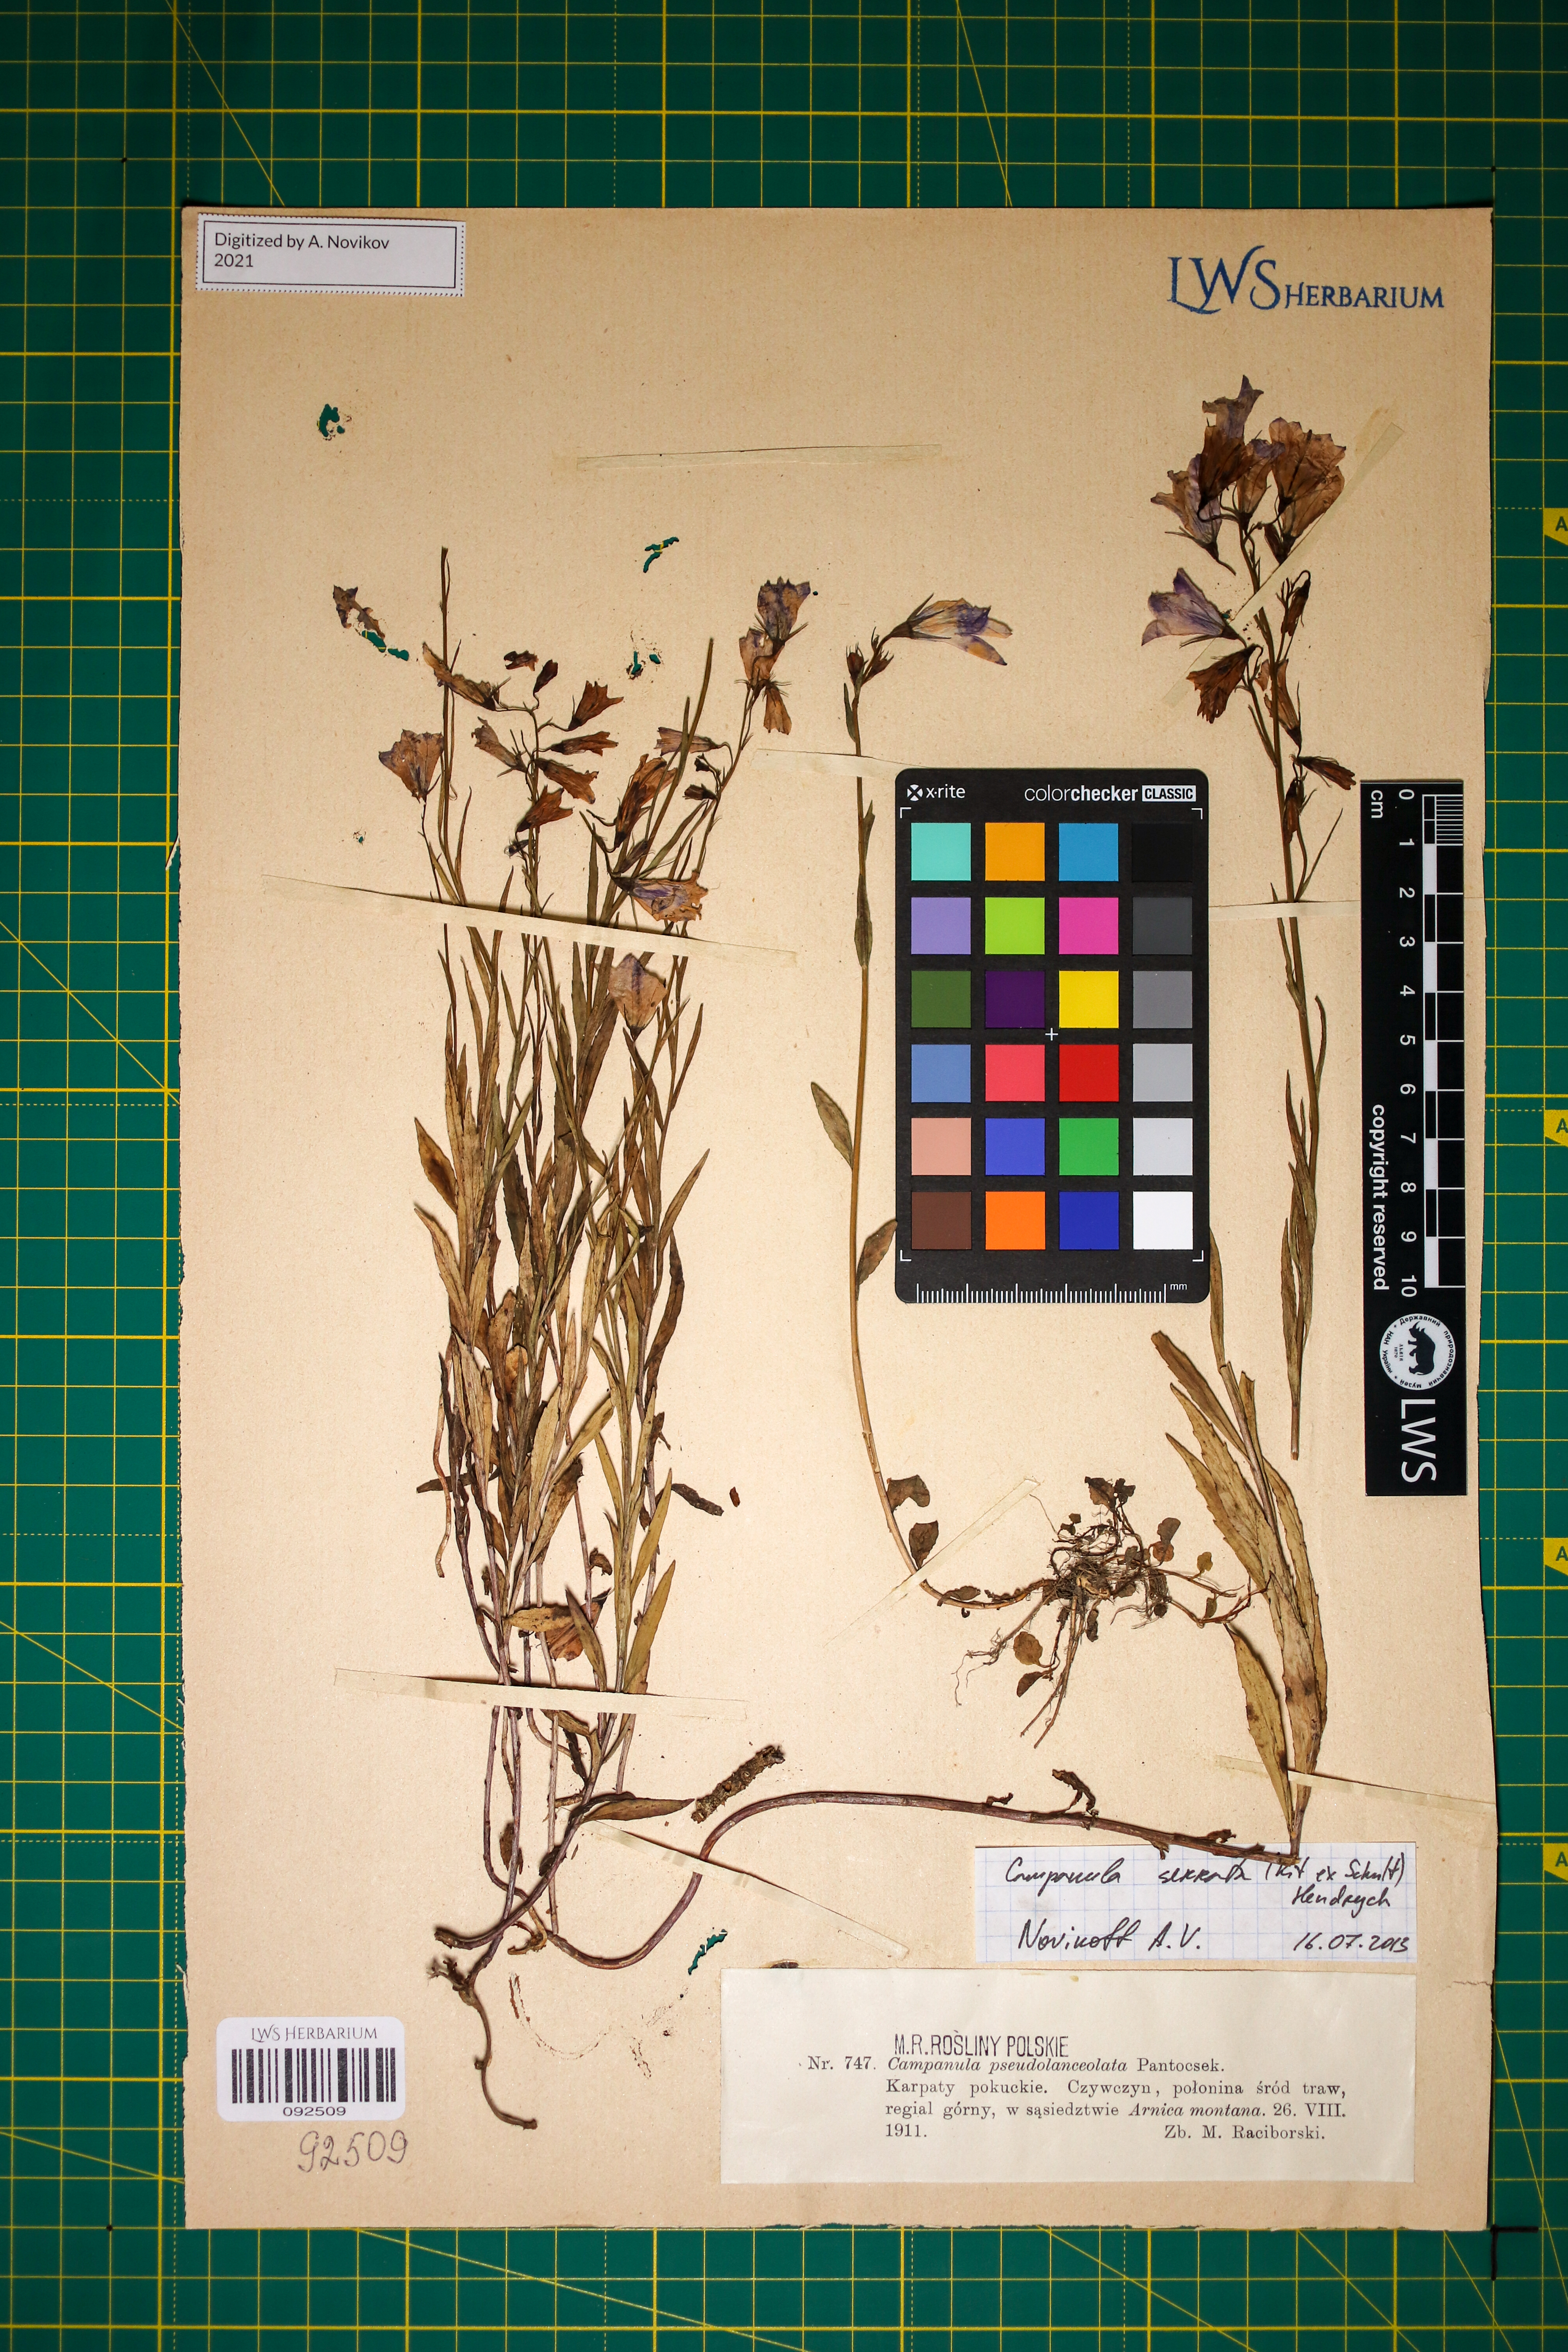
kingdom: Plantae
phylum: Tracheophyta
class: Magnoliopsida
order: Asterales
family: Campanulaceae
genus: Campanula
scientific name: Campanula serrata
